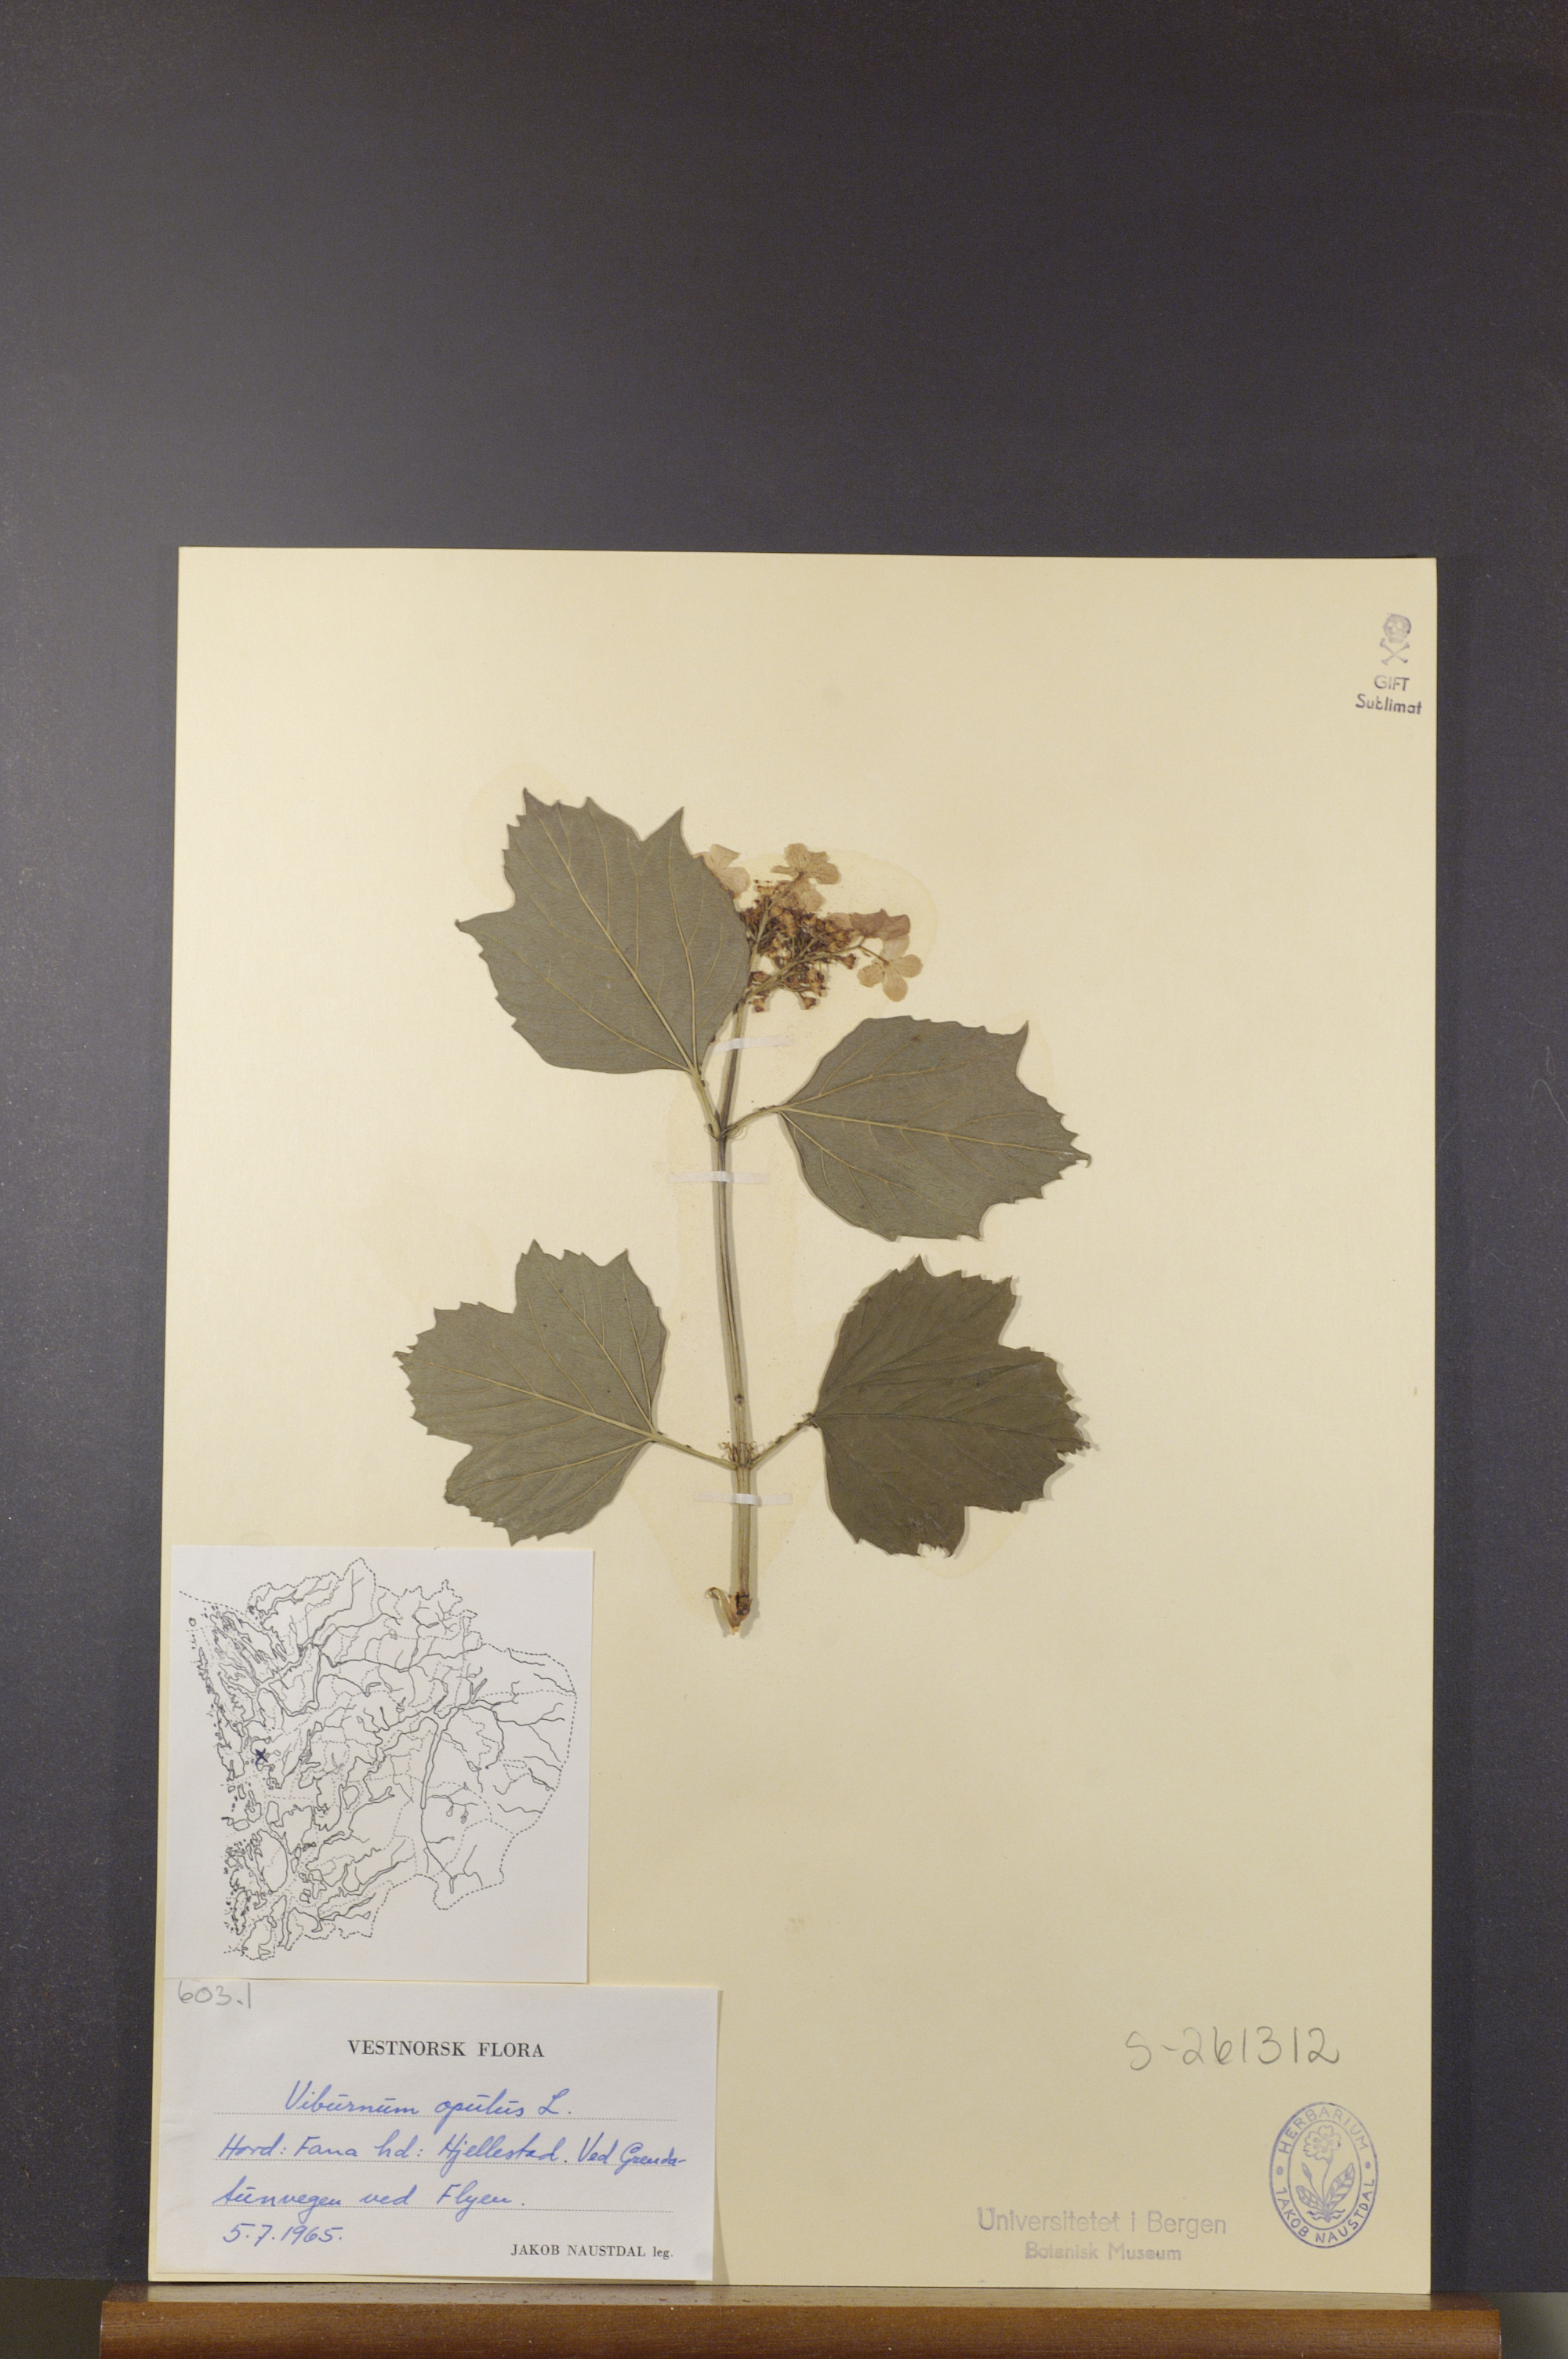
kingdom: Plantae
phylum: Tracheophyta
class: Magnoliopsida
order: Dipsacales
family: Viburnaceae
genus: Viburnum
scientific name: Viburnum opulus
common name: Guelder-rose
